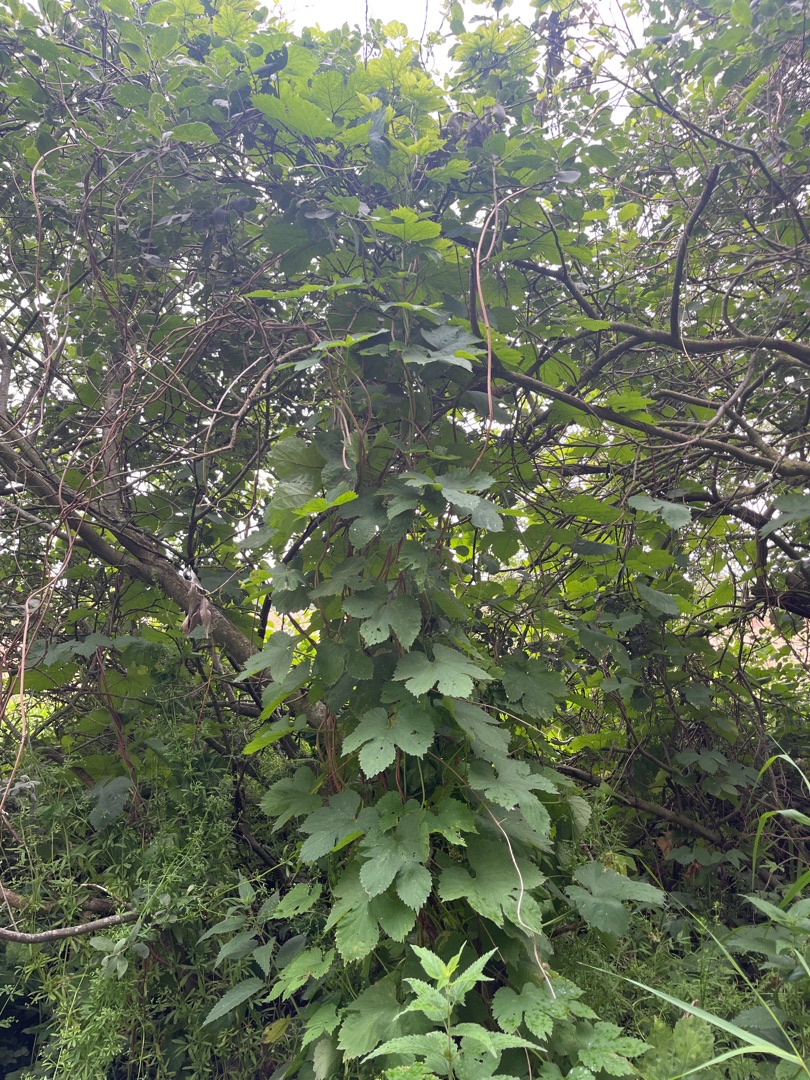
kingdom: Plantae
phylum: Tracheophyta
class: Magnoliopsida
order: Rosales
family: Cannabaceae
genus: Humulus
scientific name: Humulus lupulus
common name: Humle
